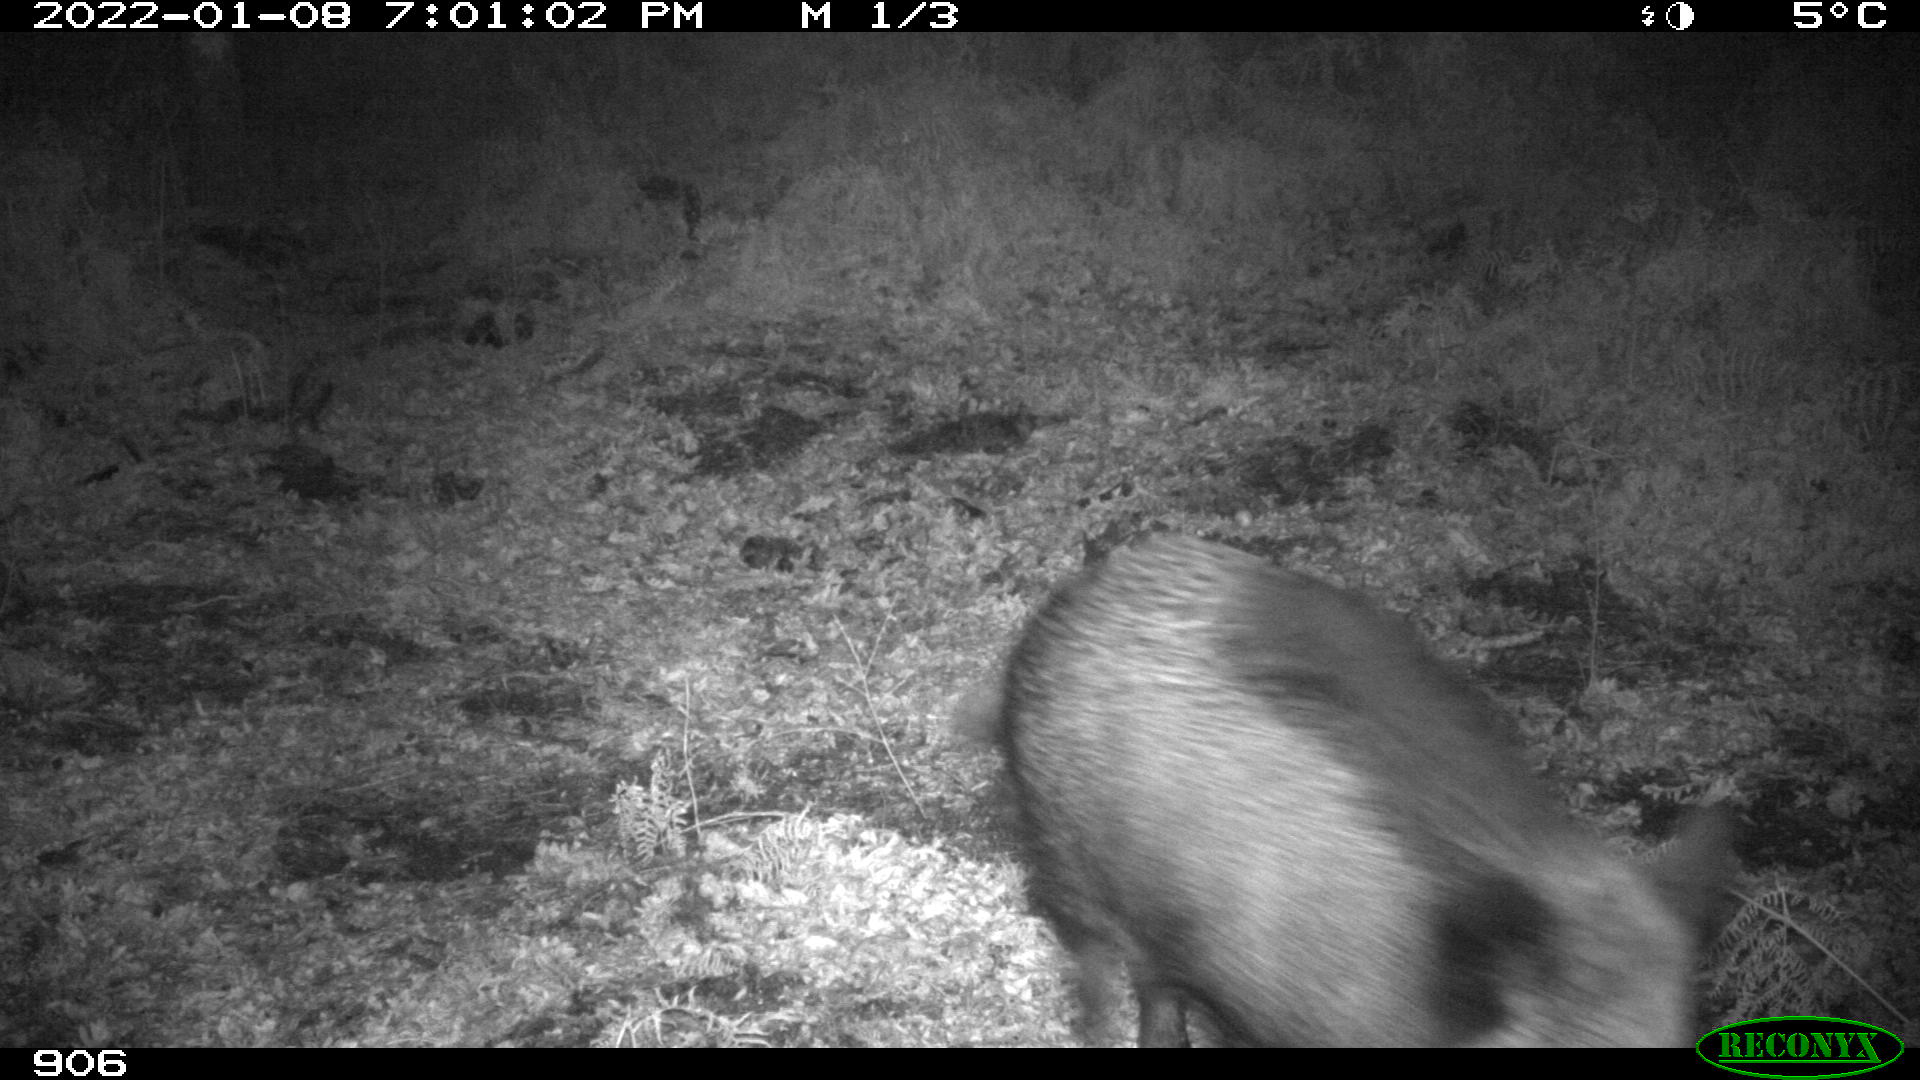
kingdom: Animalia
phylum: Chordata
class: Mammalia
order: Artiodactyla
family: Suidae
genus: Sus
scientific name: Sus scrofa
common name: Wild boar
